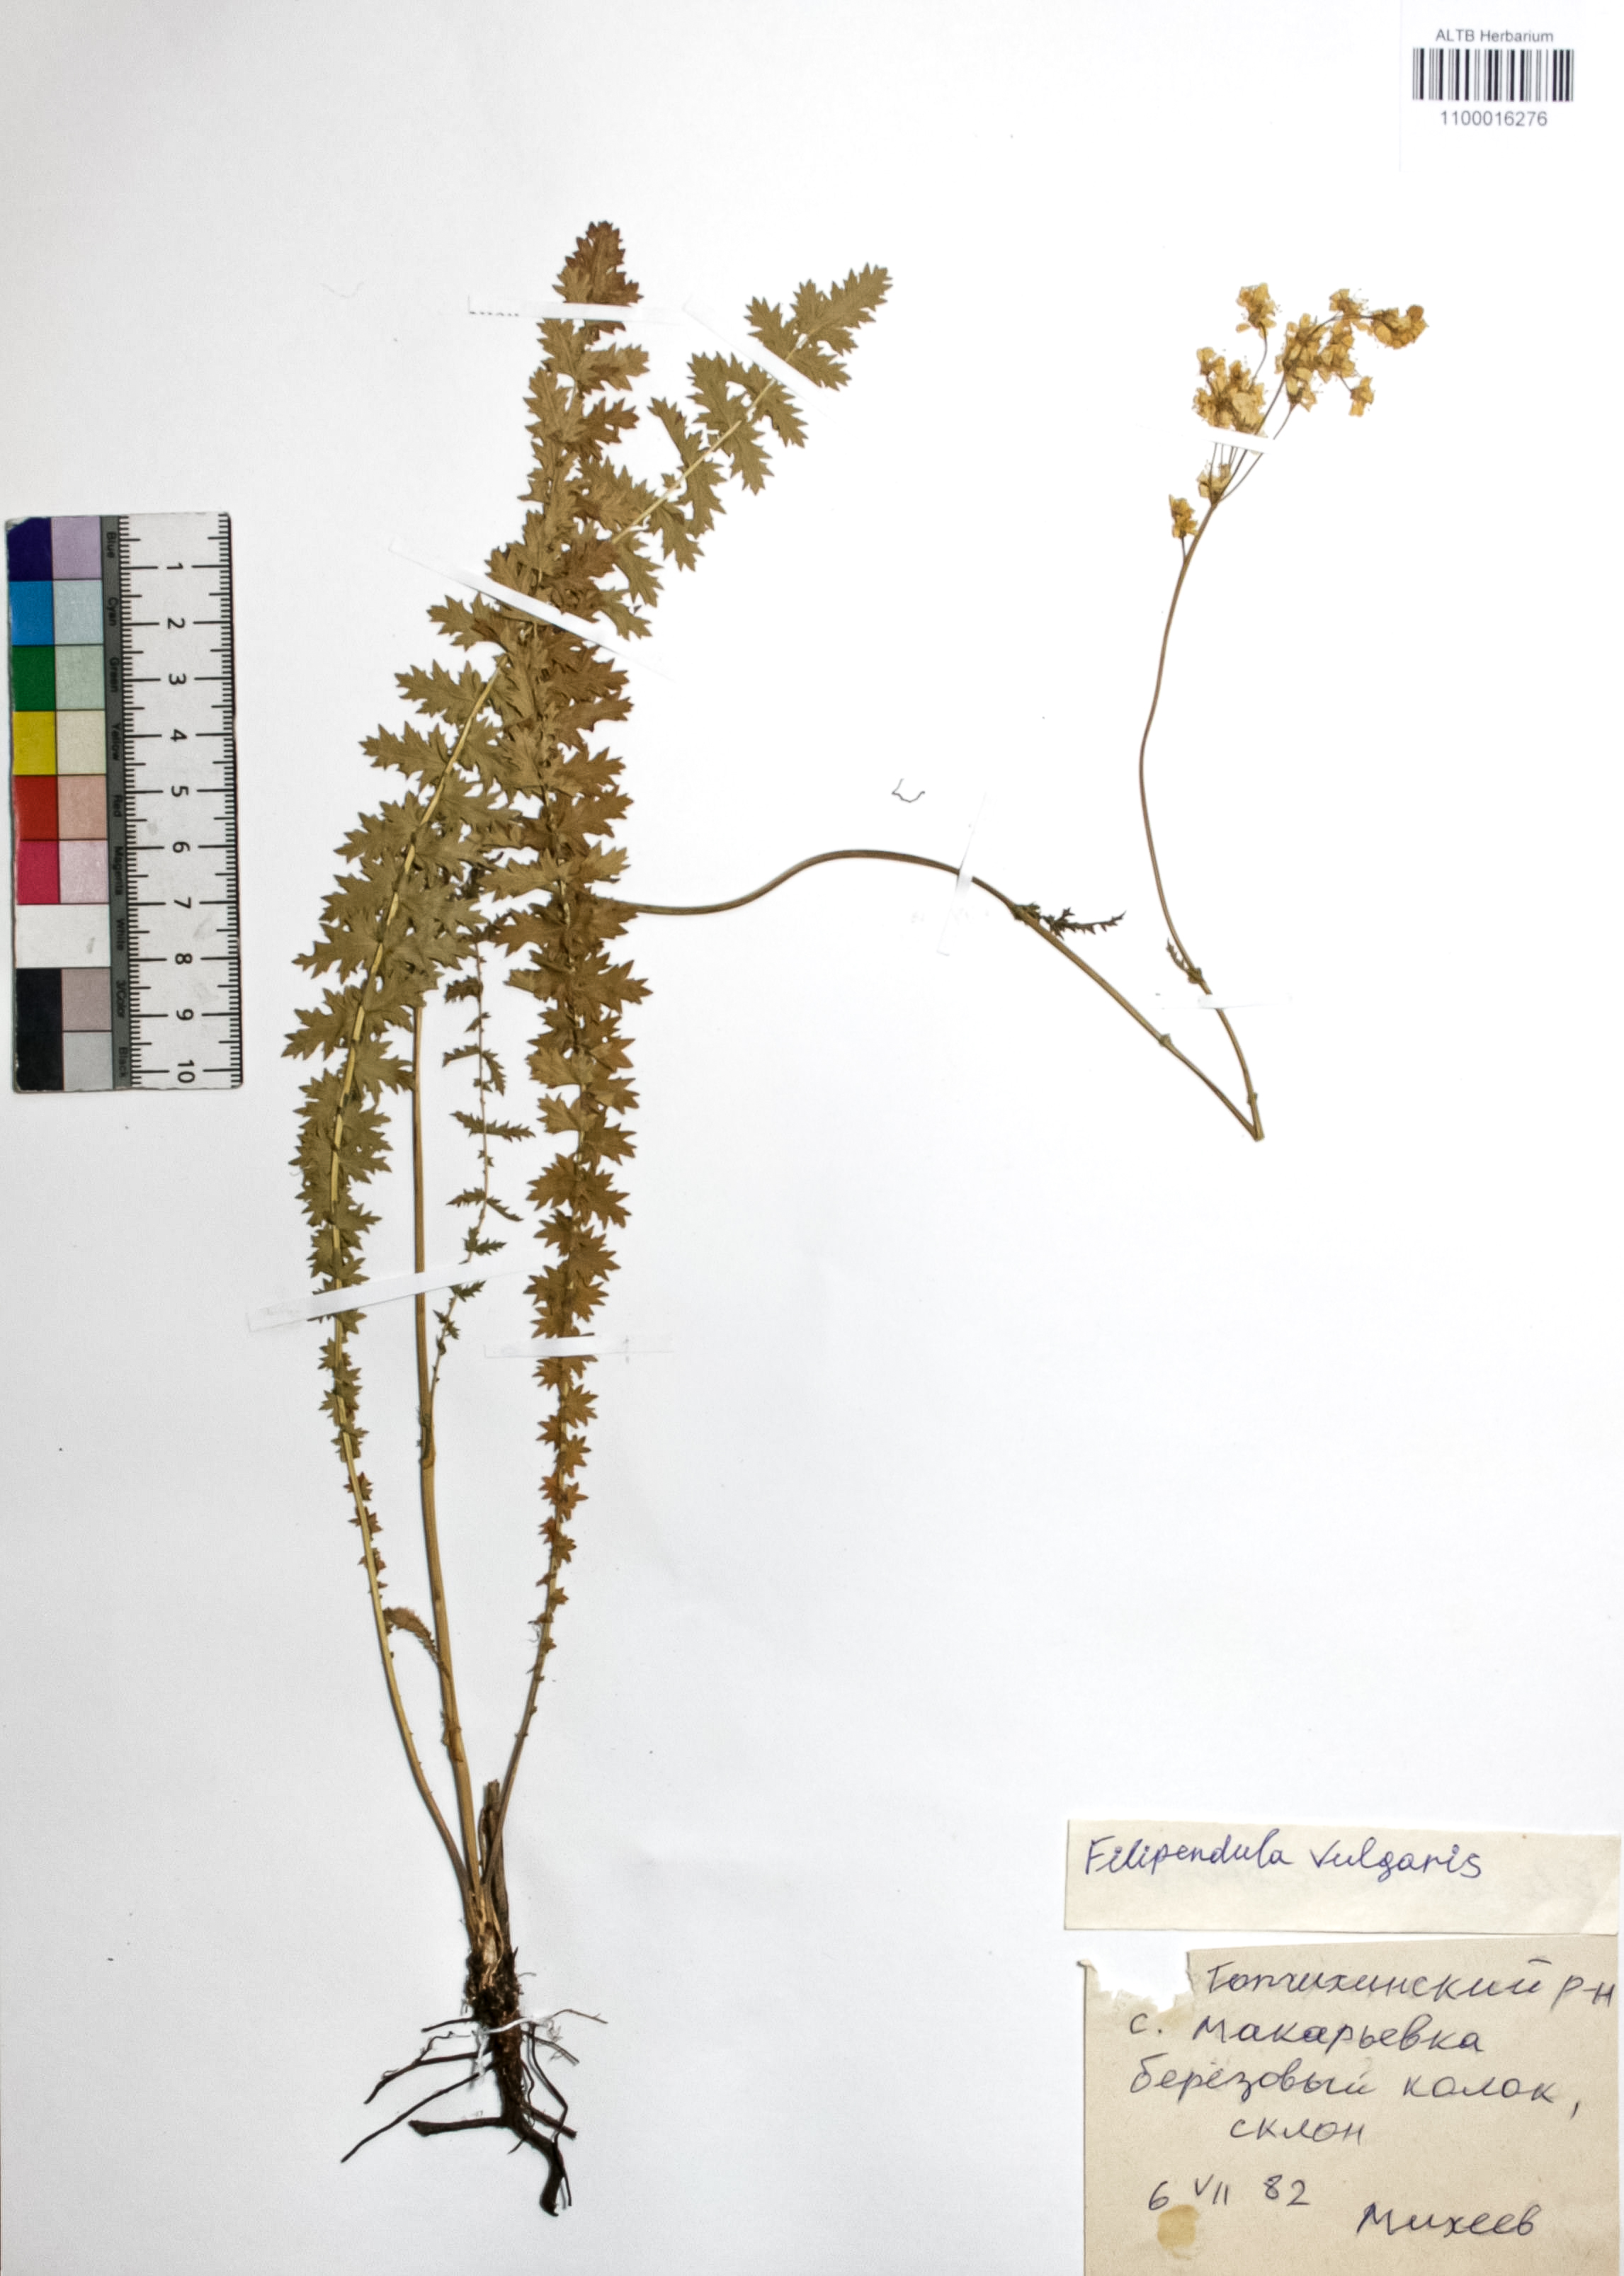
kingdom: Plantae
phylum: Tracheophyta
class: Magnoliopsida
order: Rosales
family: Rosaceae
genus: Filipendula
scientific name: Filipendula vulgaris
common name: Dropwort
